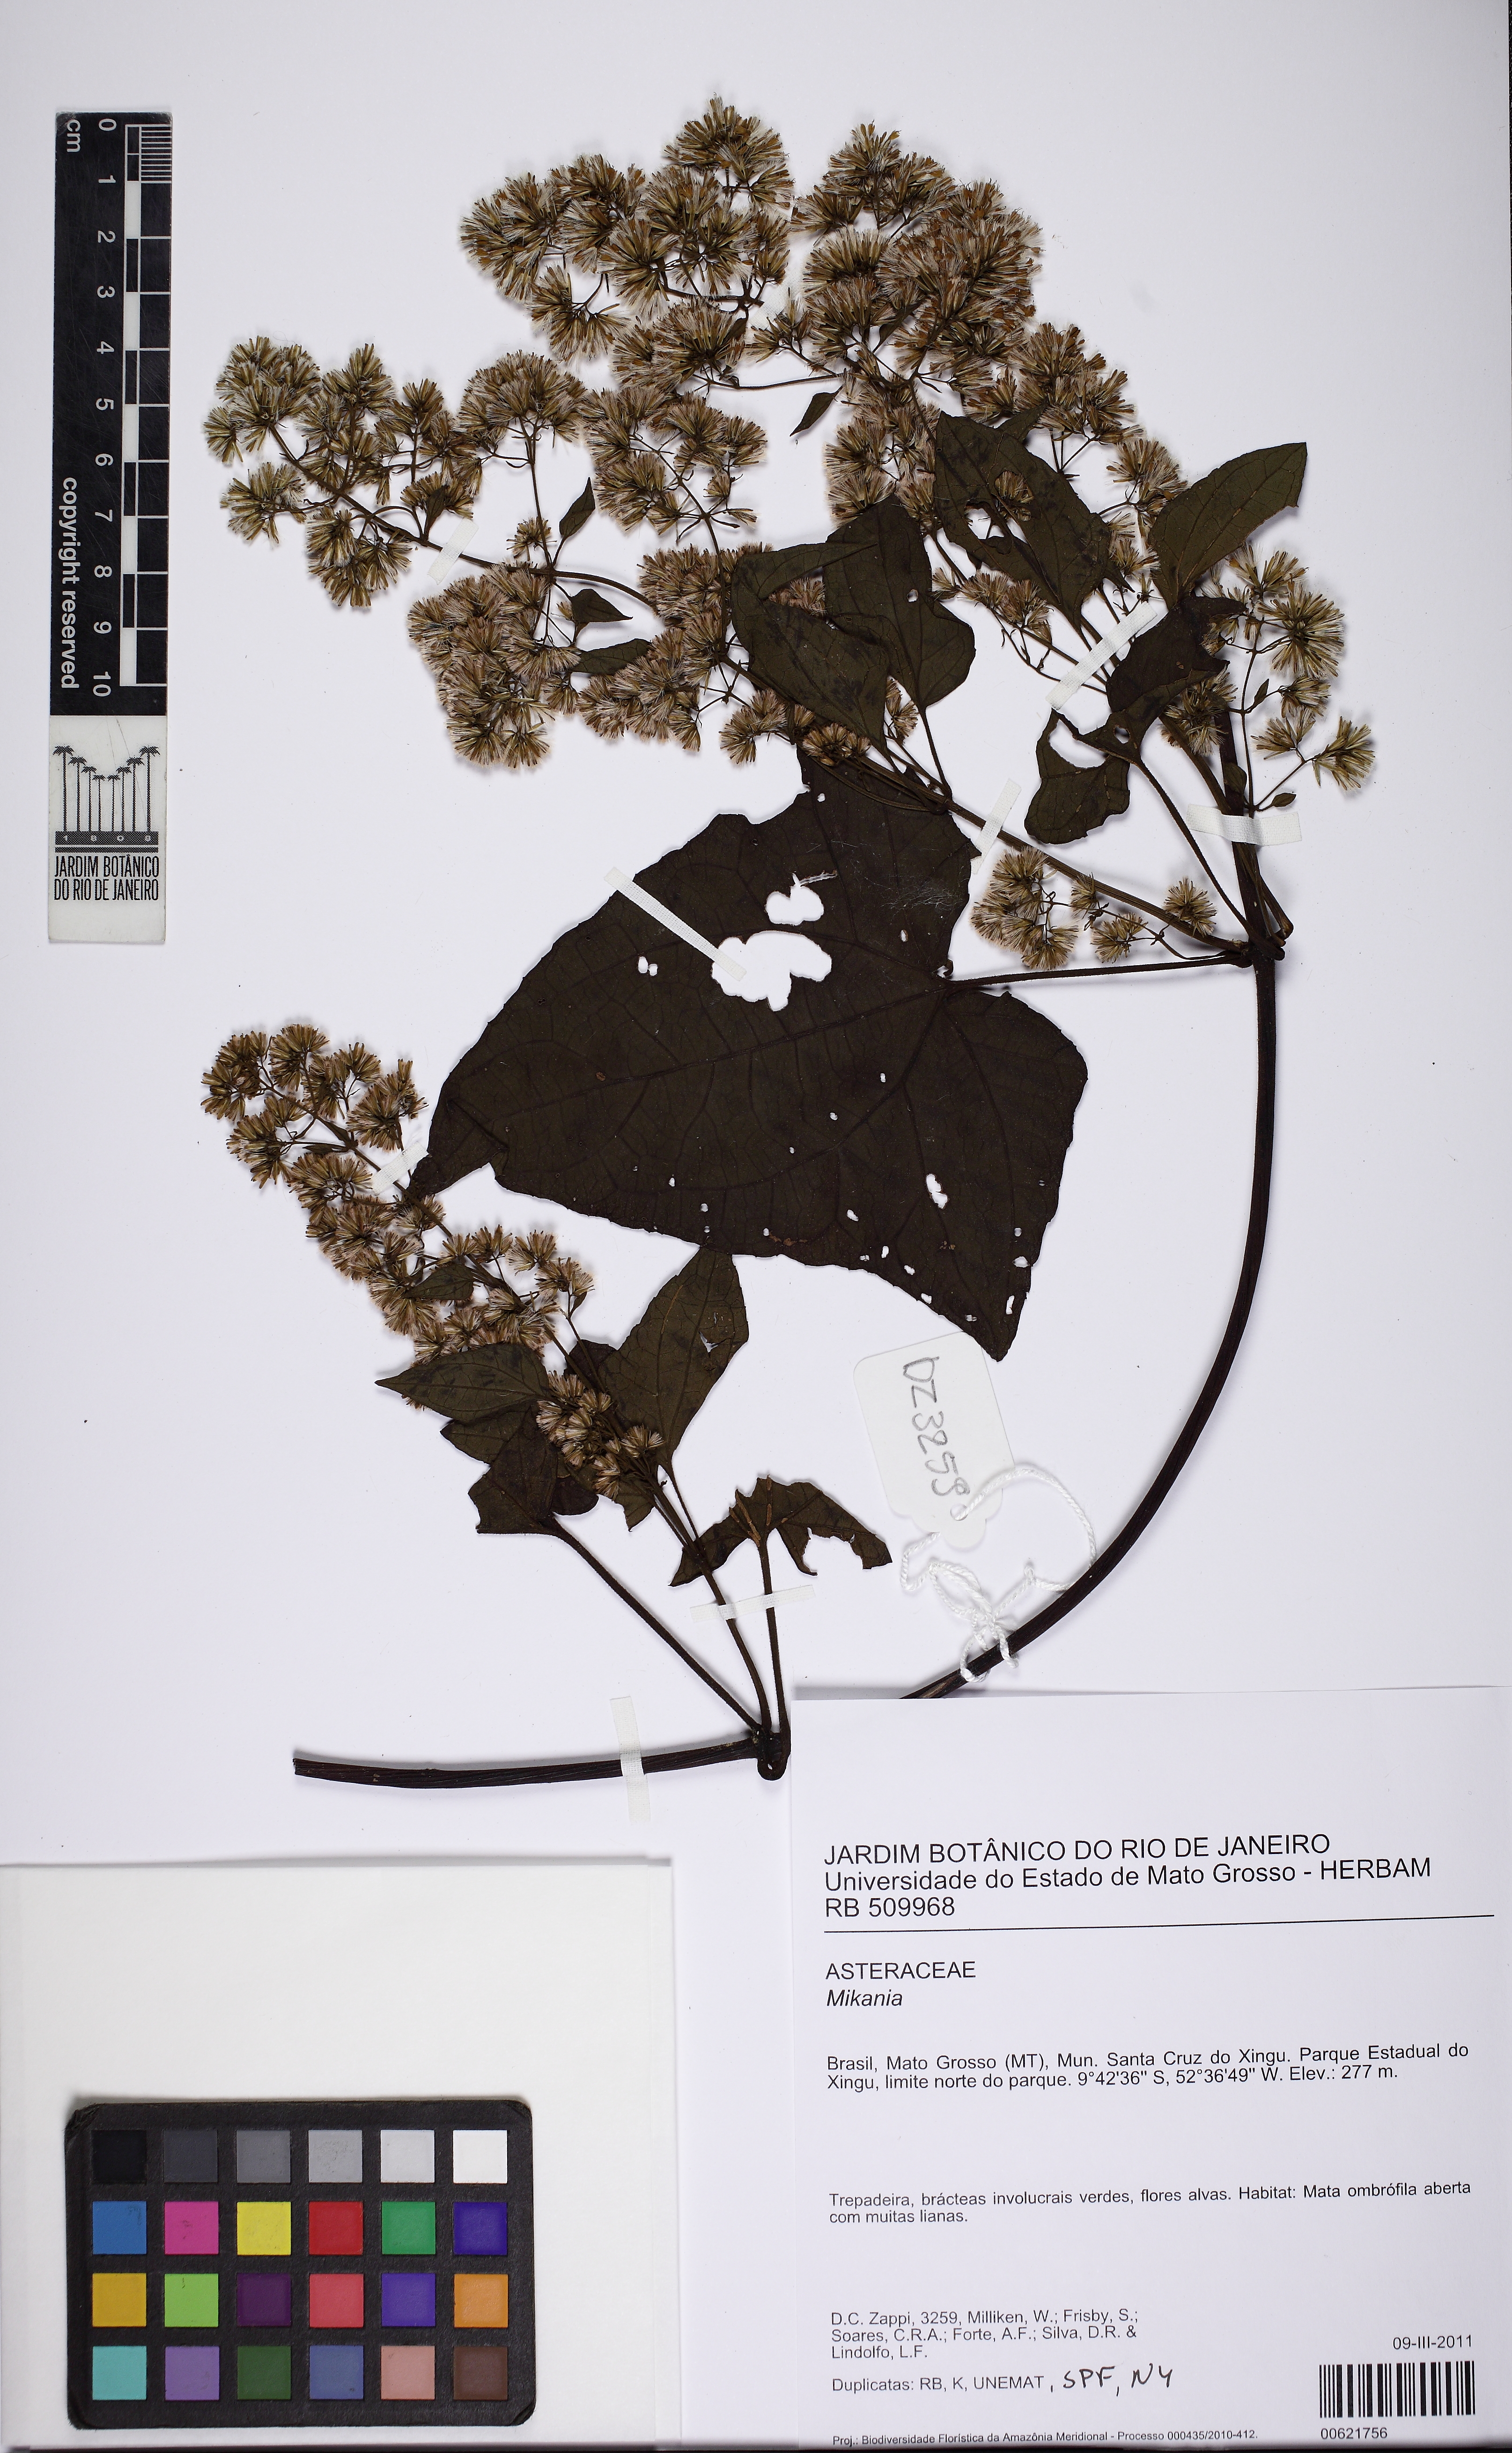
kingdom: Plantae
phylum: Tracheophyta
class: Magnoliopsida
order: Asterales
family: Asteraceae
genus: Mikania
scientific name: Mikania scandens
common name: Climbing hempvine
